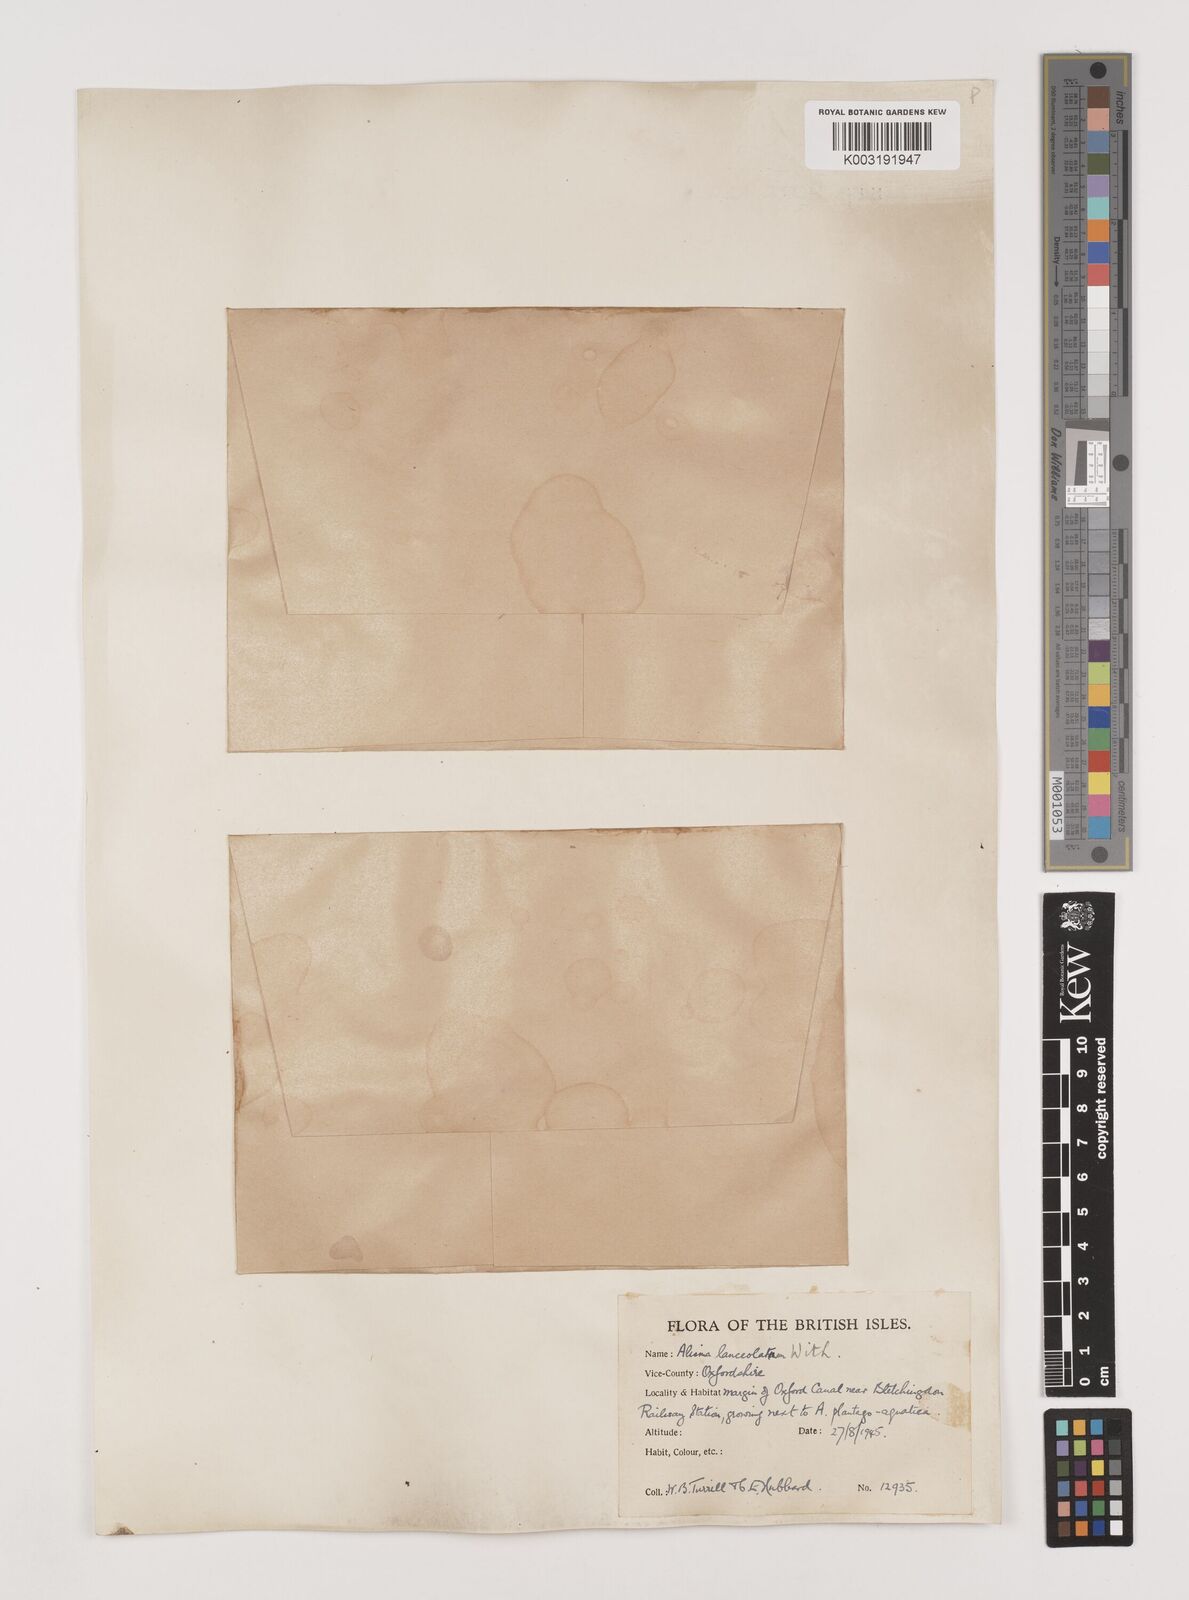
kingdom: Plantae
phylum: Tracheophyta
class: Liliopsida
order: Alismatales
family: Alismataceae
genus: Alisma
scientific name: Alisma lanceolatum
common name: Narrow-leaved water-plantain
